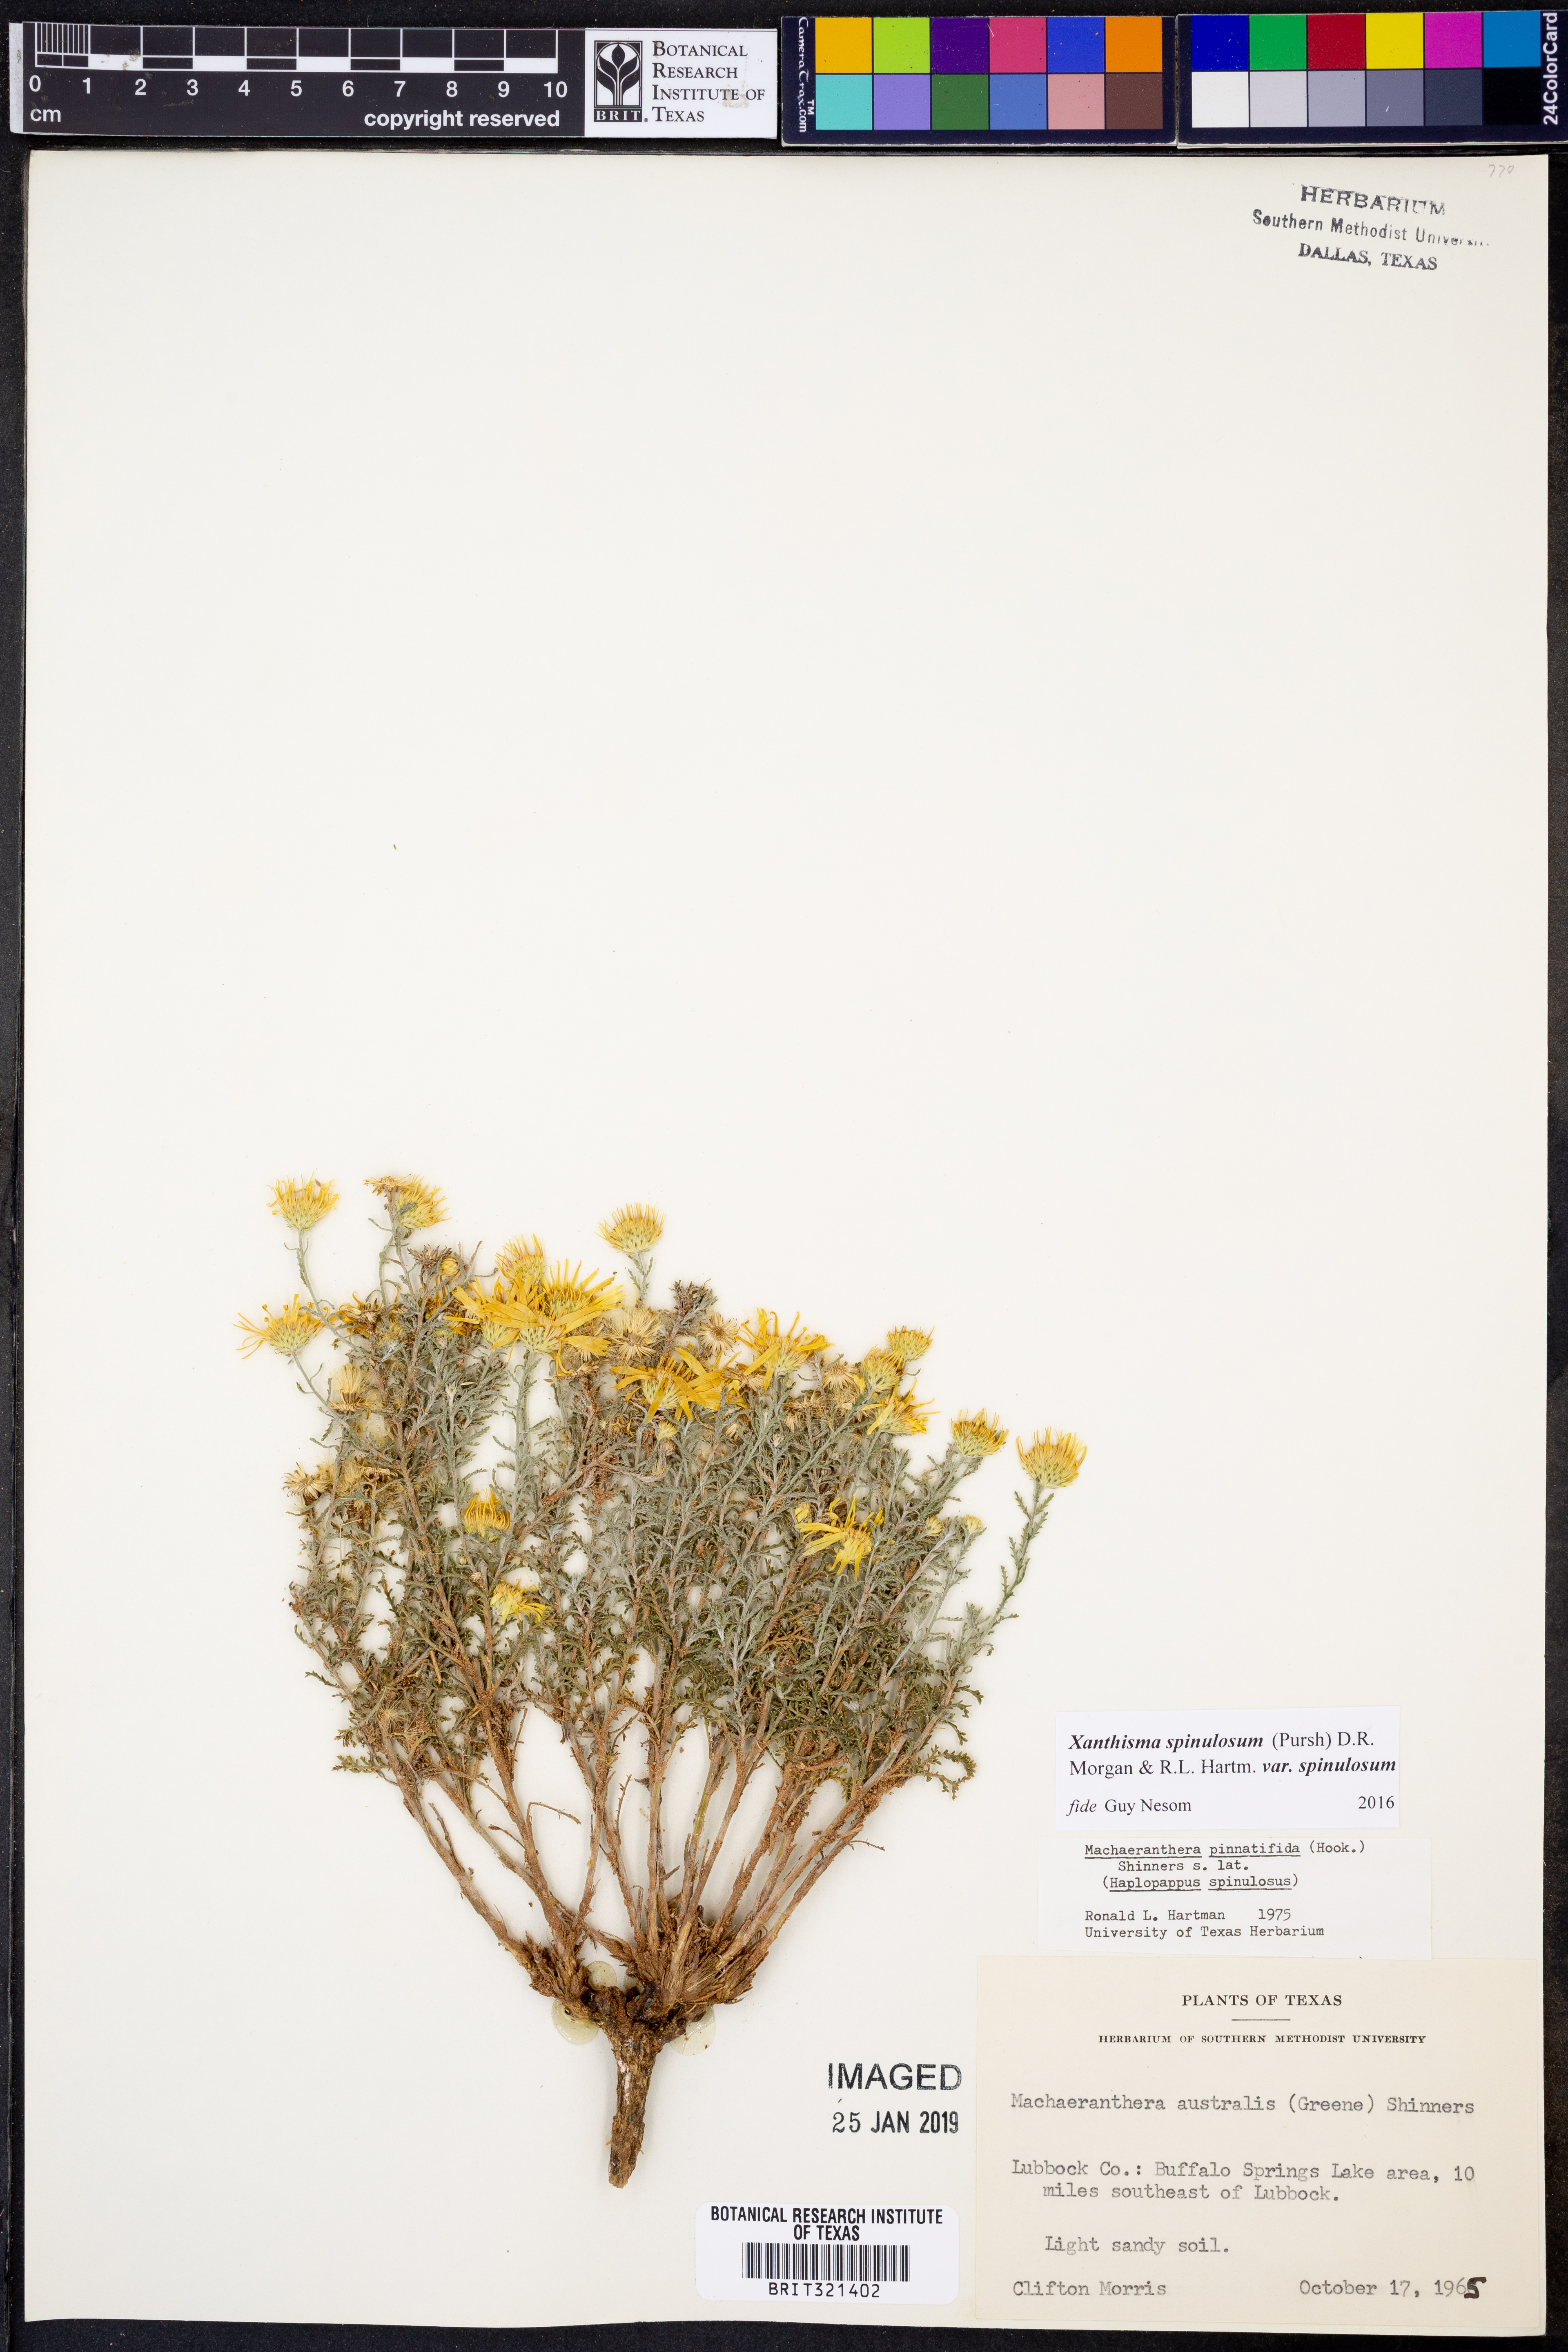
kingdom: Plantae
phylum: Tracheophyta
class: Magnoliopsida
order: Asterales
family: Asteraceae
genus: Xanthisma
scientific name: Xanthisma spinulosum
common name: Spiny goldenweed
